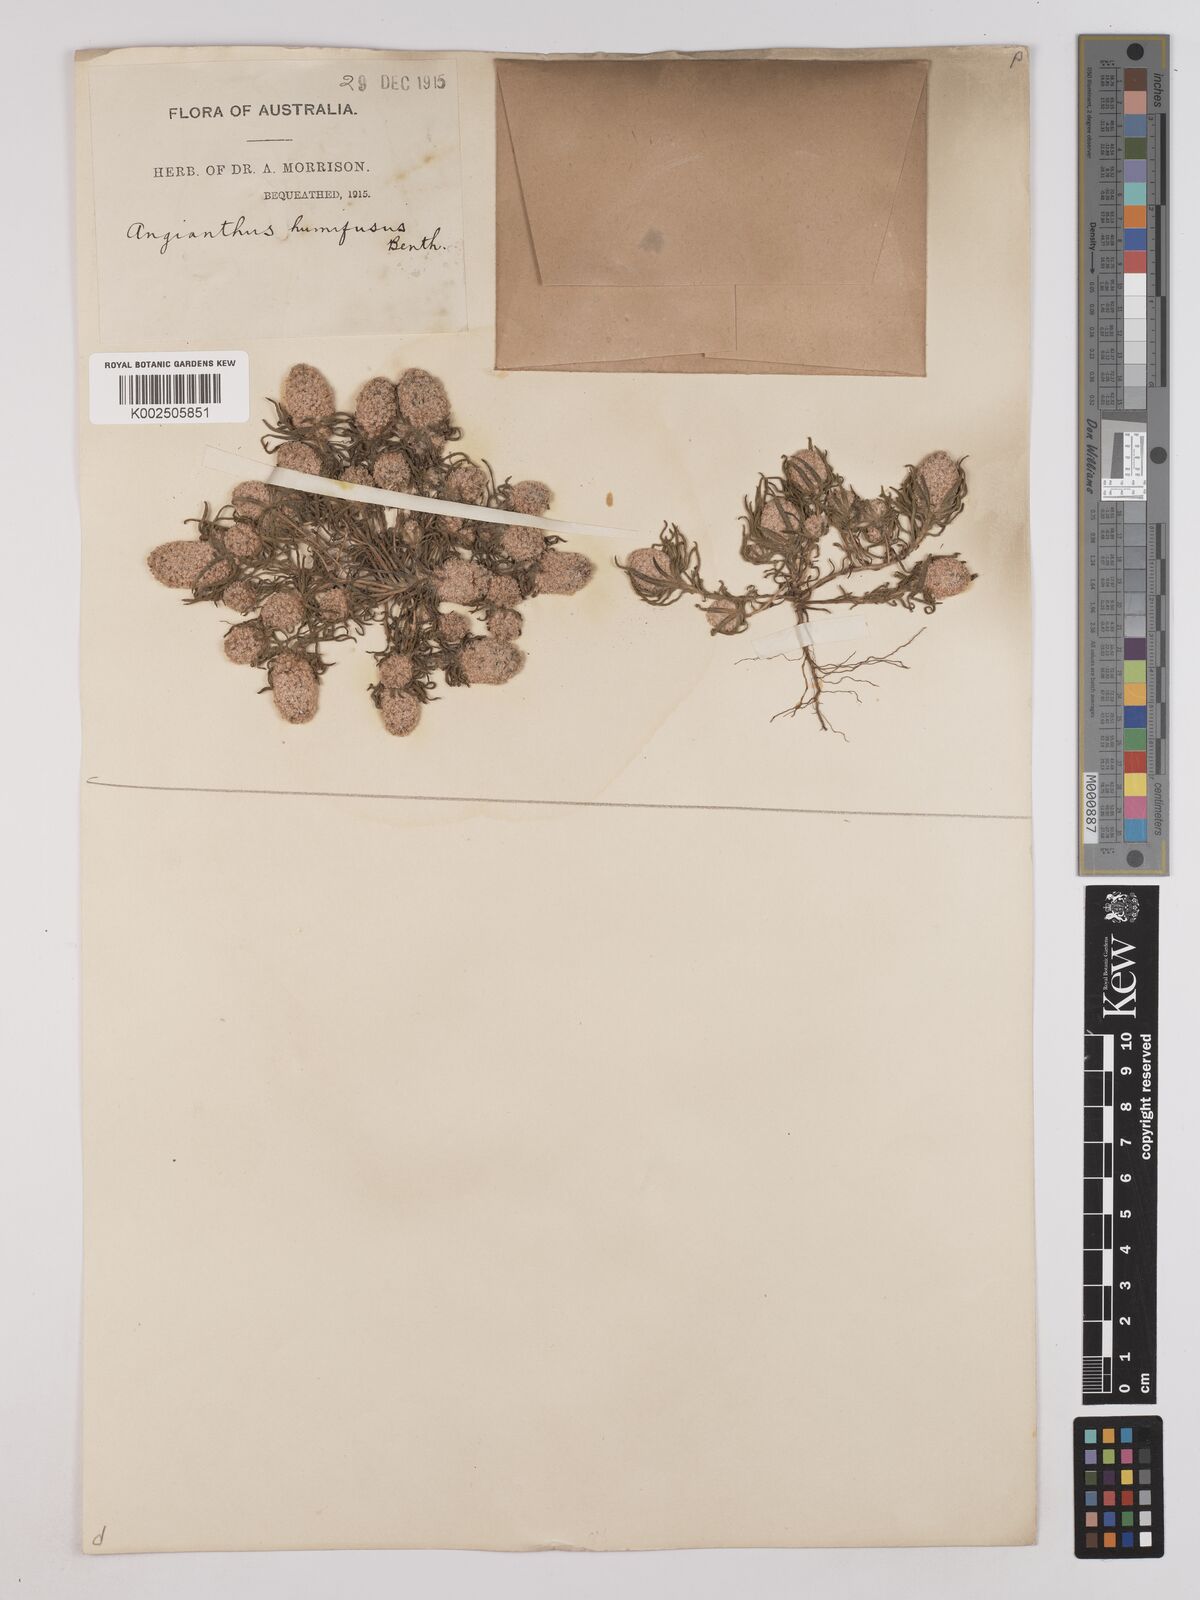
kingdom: Plantae
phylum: Tracheophyta
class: Magnoliopsida
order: Asterales
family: Asteraceae
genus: Siloxerus
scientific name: Siloxerus humifusus
